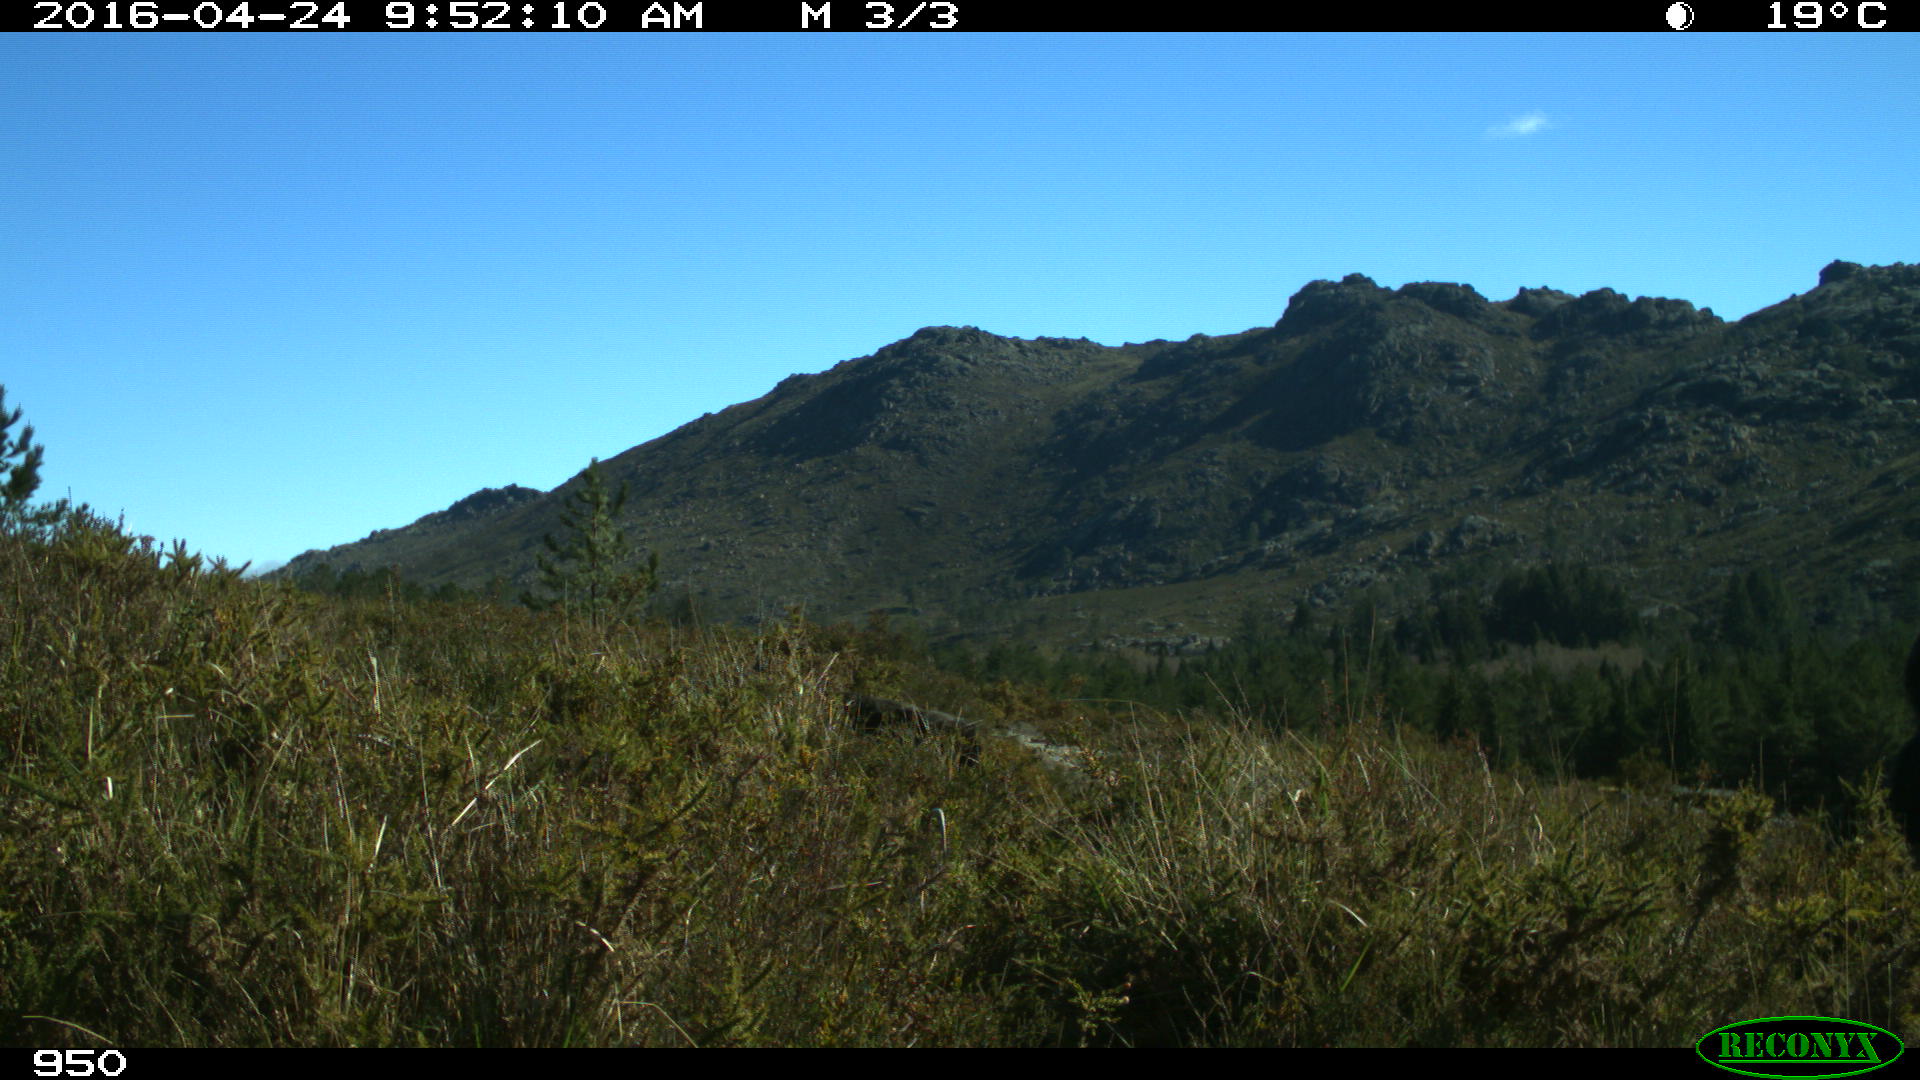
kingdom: Animalia
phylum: Chordata
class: Mammalia
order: Carnivora
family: Canidae
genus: Canis
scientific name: Canis lupus
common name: Gray wolf
